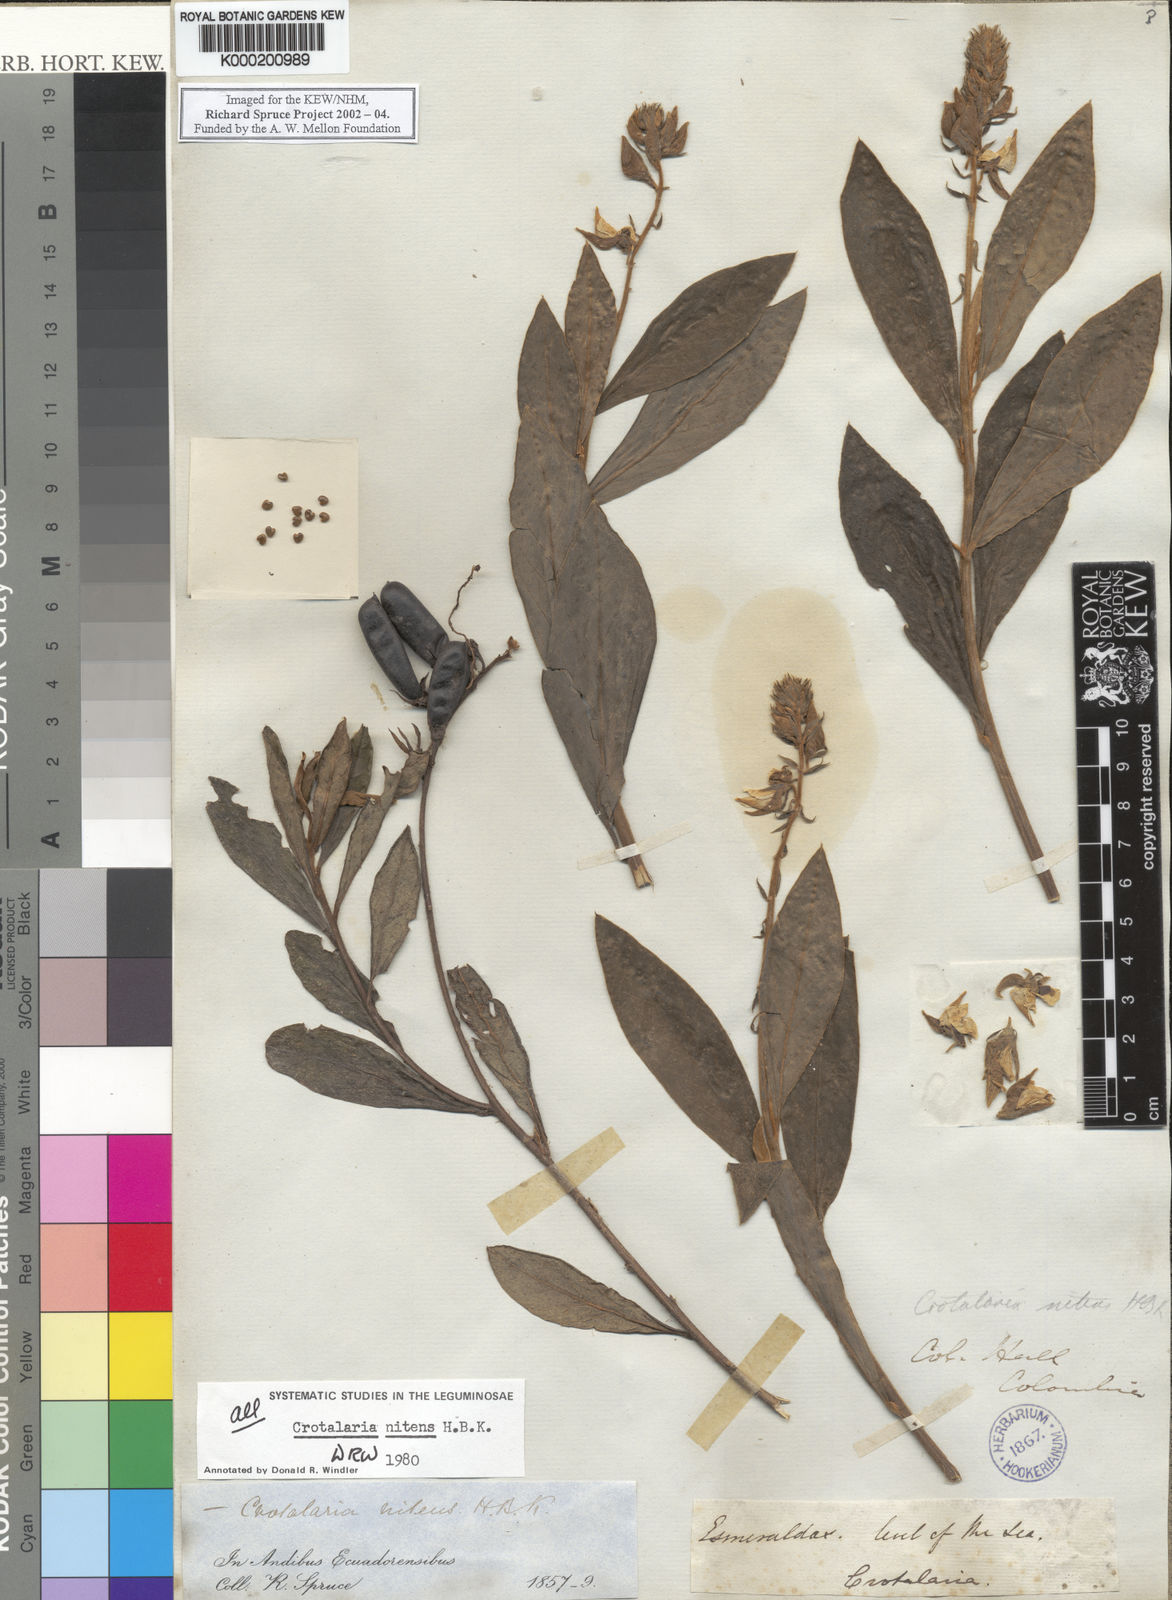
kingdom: Plantae
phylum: Tracheophyta
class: Magnoliopsida
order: Fabales
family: Fabaceae
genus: Crotalaria
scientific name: Crotalaria nitens
